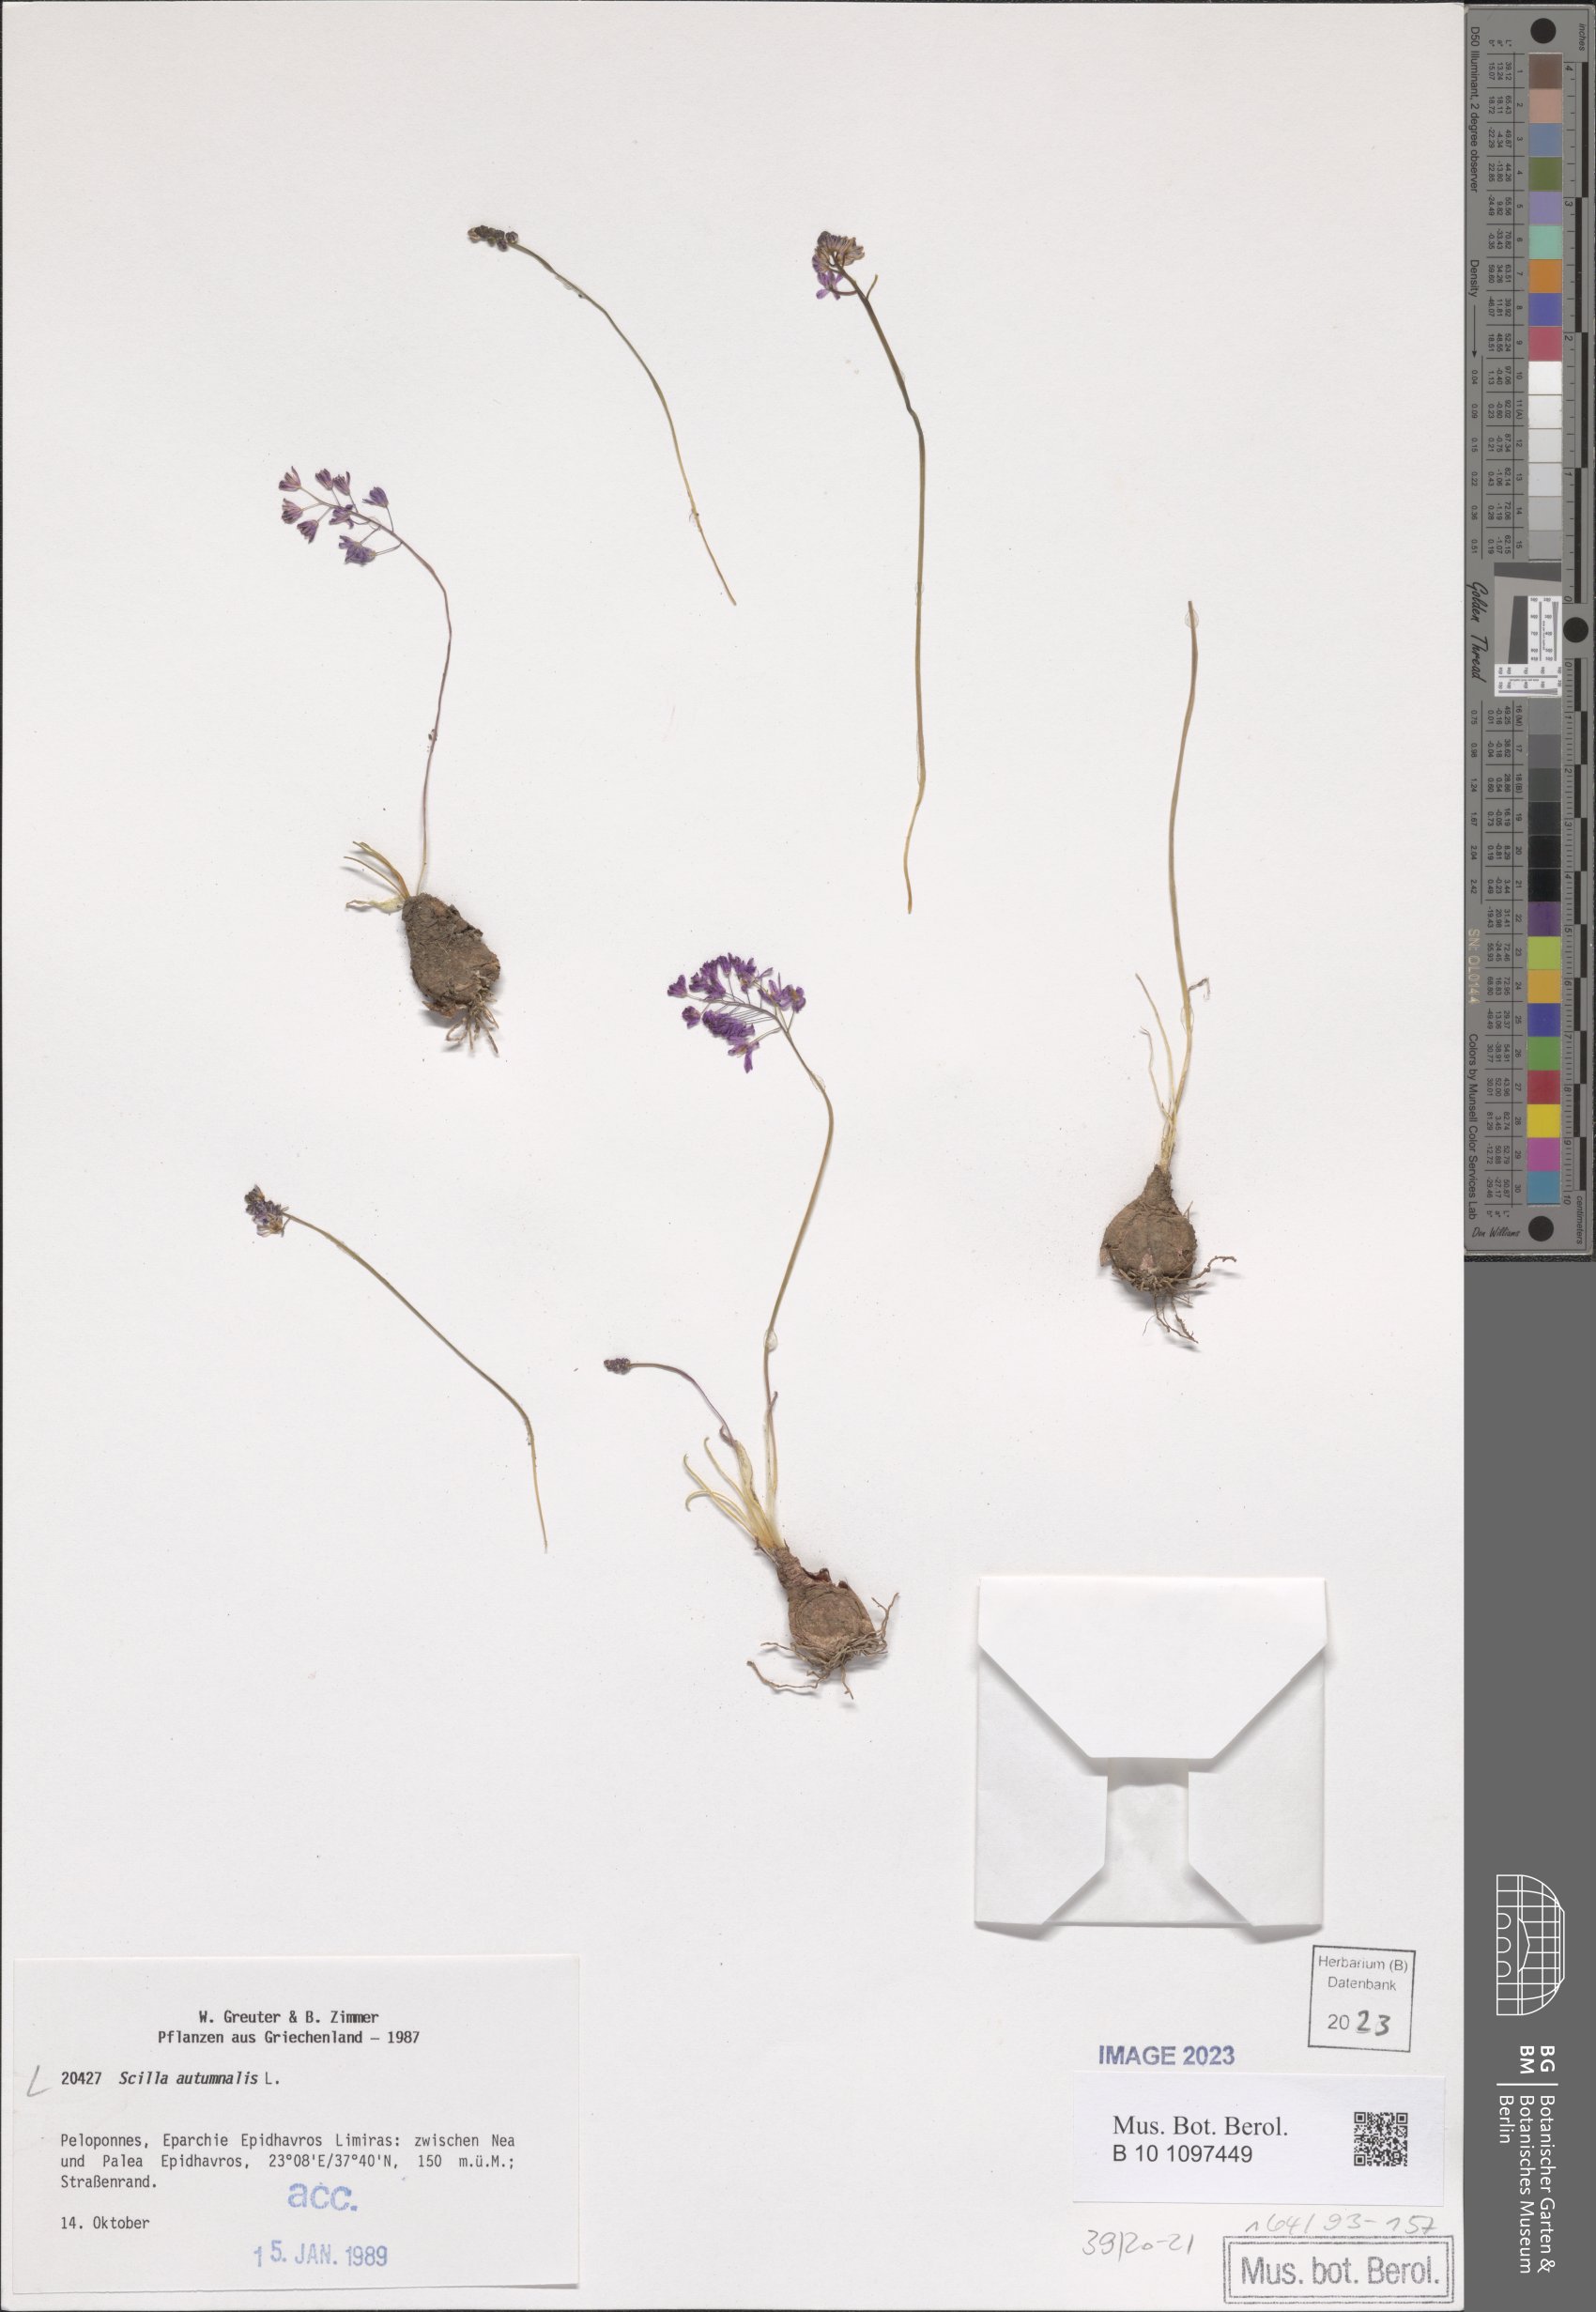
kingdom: Plantae
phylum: Tracheophyta
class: Liliopsida
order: Asparagales
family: Asparagaceae
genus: Prospero
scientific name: Prospero autumnale
